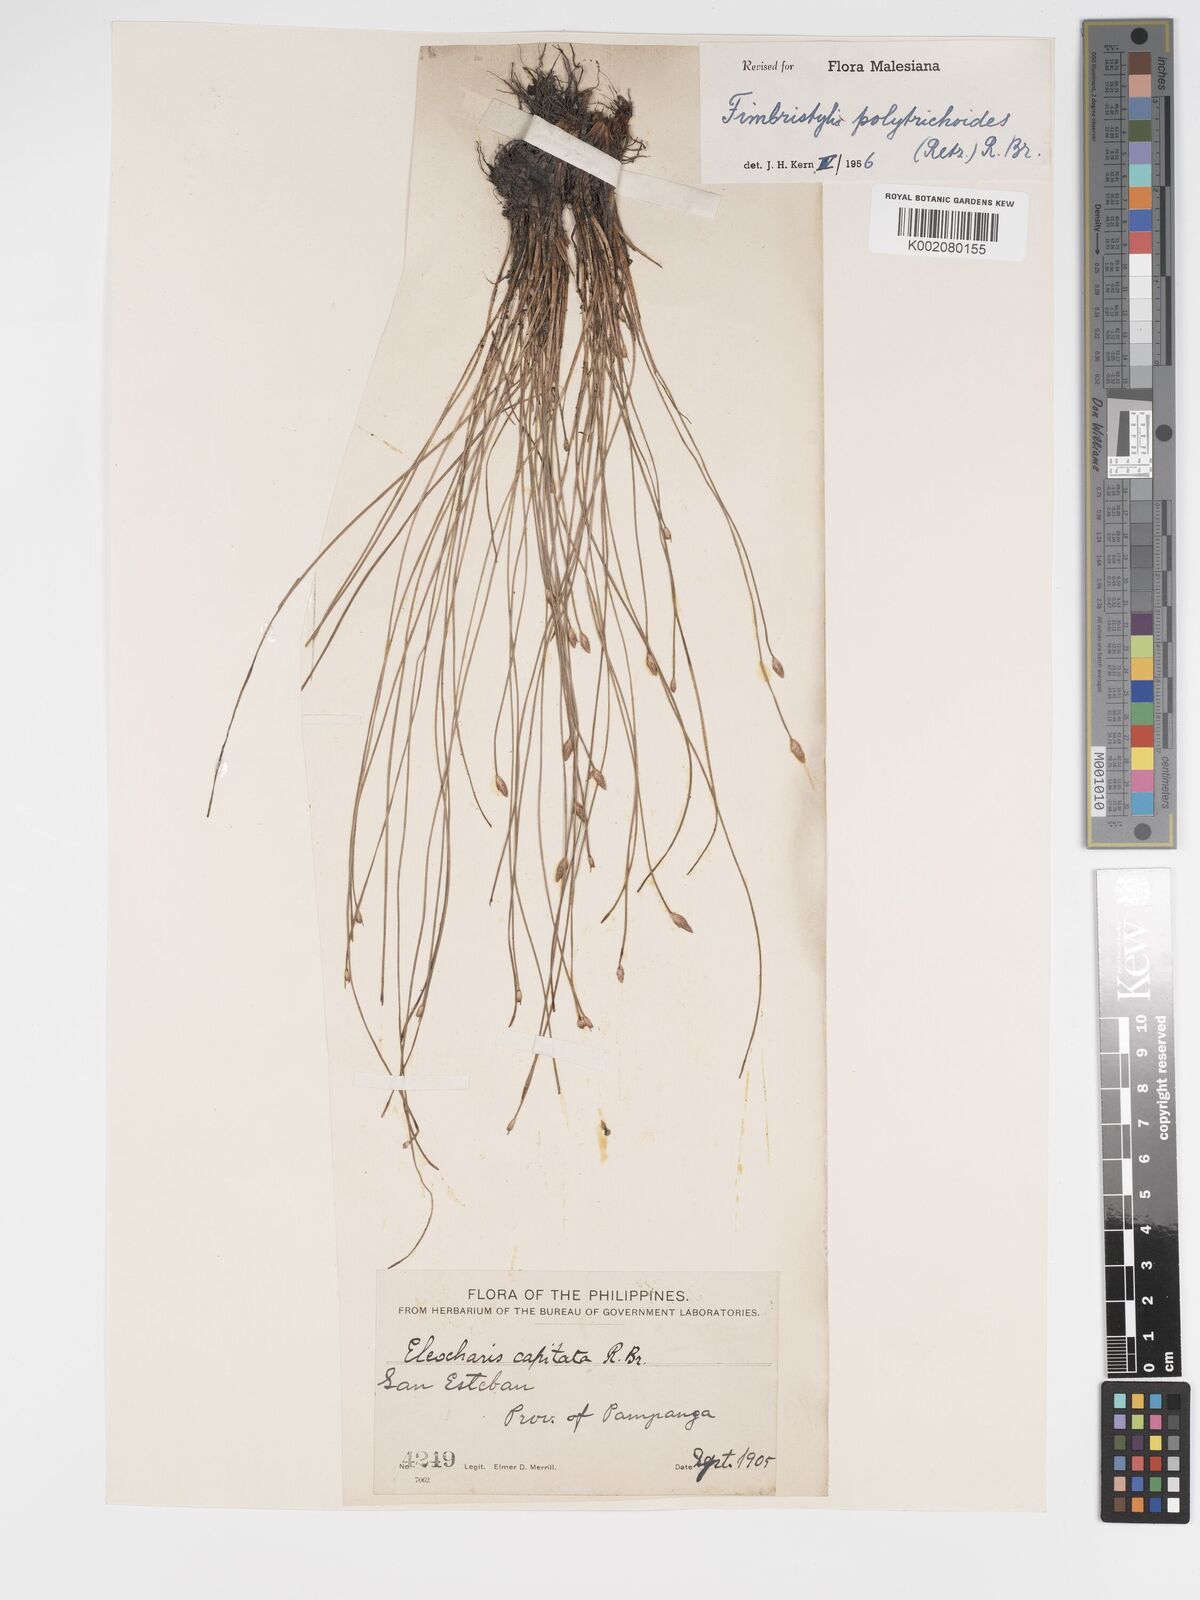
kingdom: Plantae
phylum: Tracheophyta
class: Liliopsida
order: Poales
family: Cyperaceae
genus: Fimbristylis
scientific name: Fimbristylis polytrichoides
